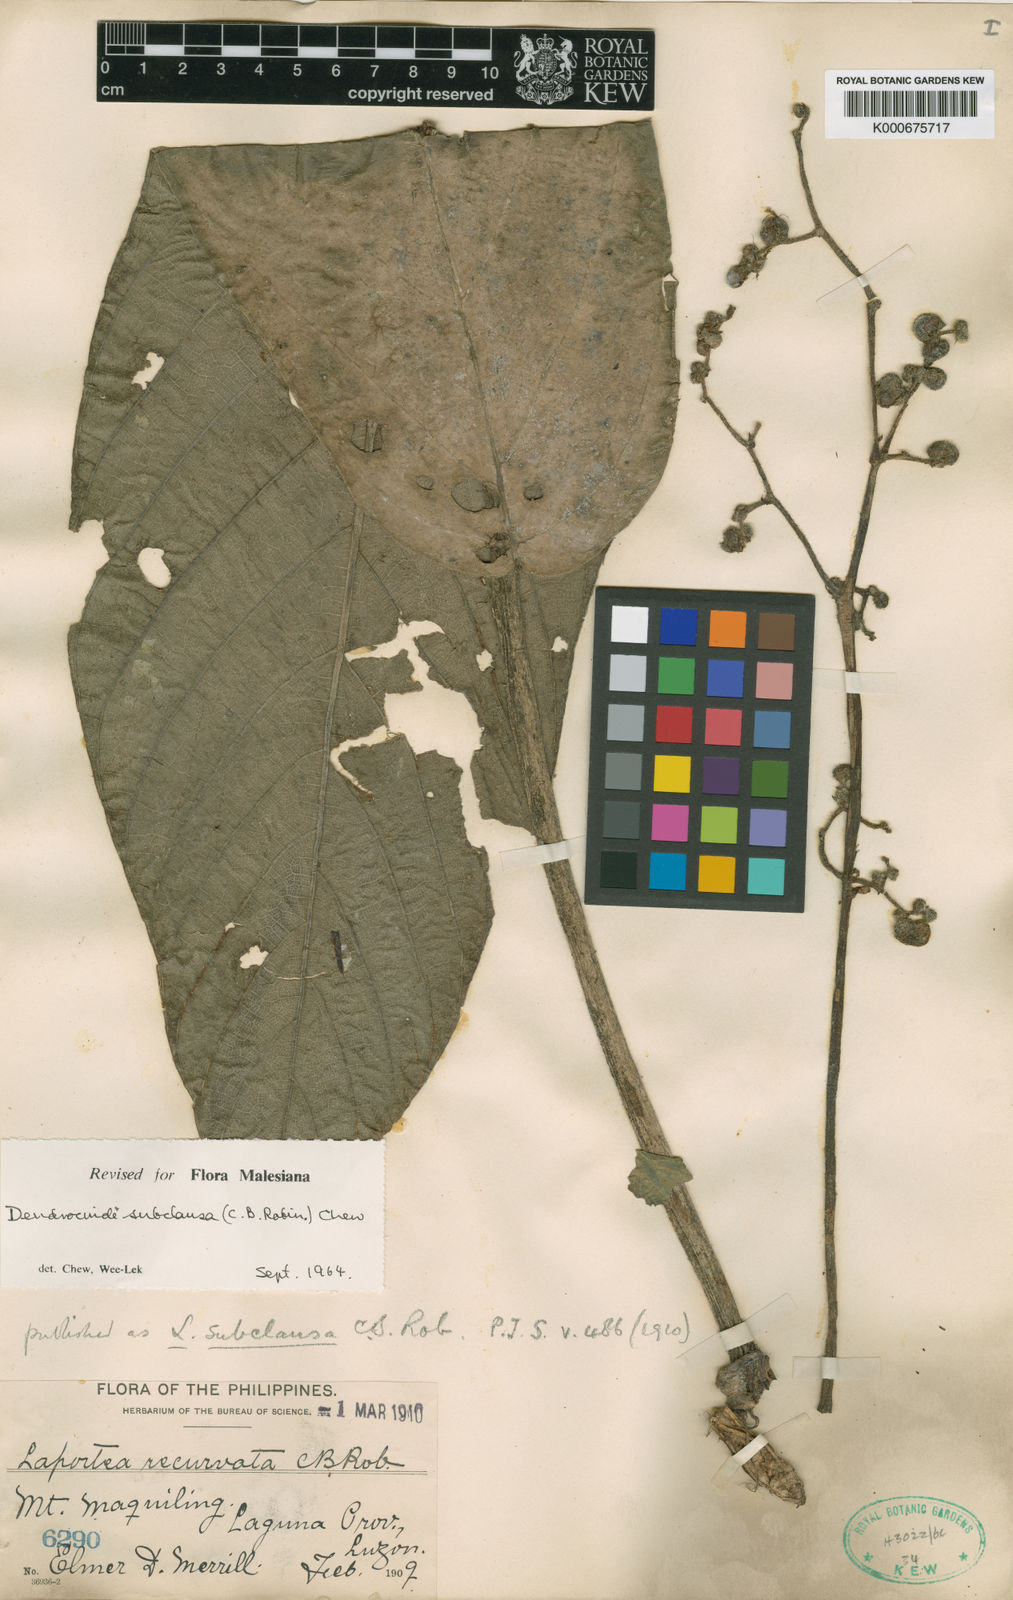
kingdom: Plantae
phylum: Tracheophyta
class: Magnoliopsida
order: Rosales
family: Urticaceae
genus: Dendrocnide
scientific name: Dendrocnide subclausa
